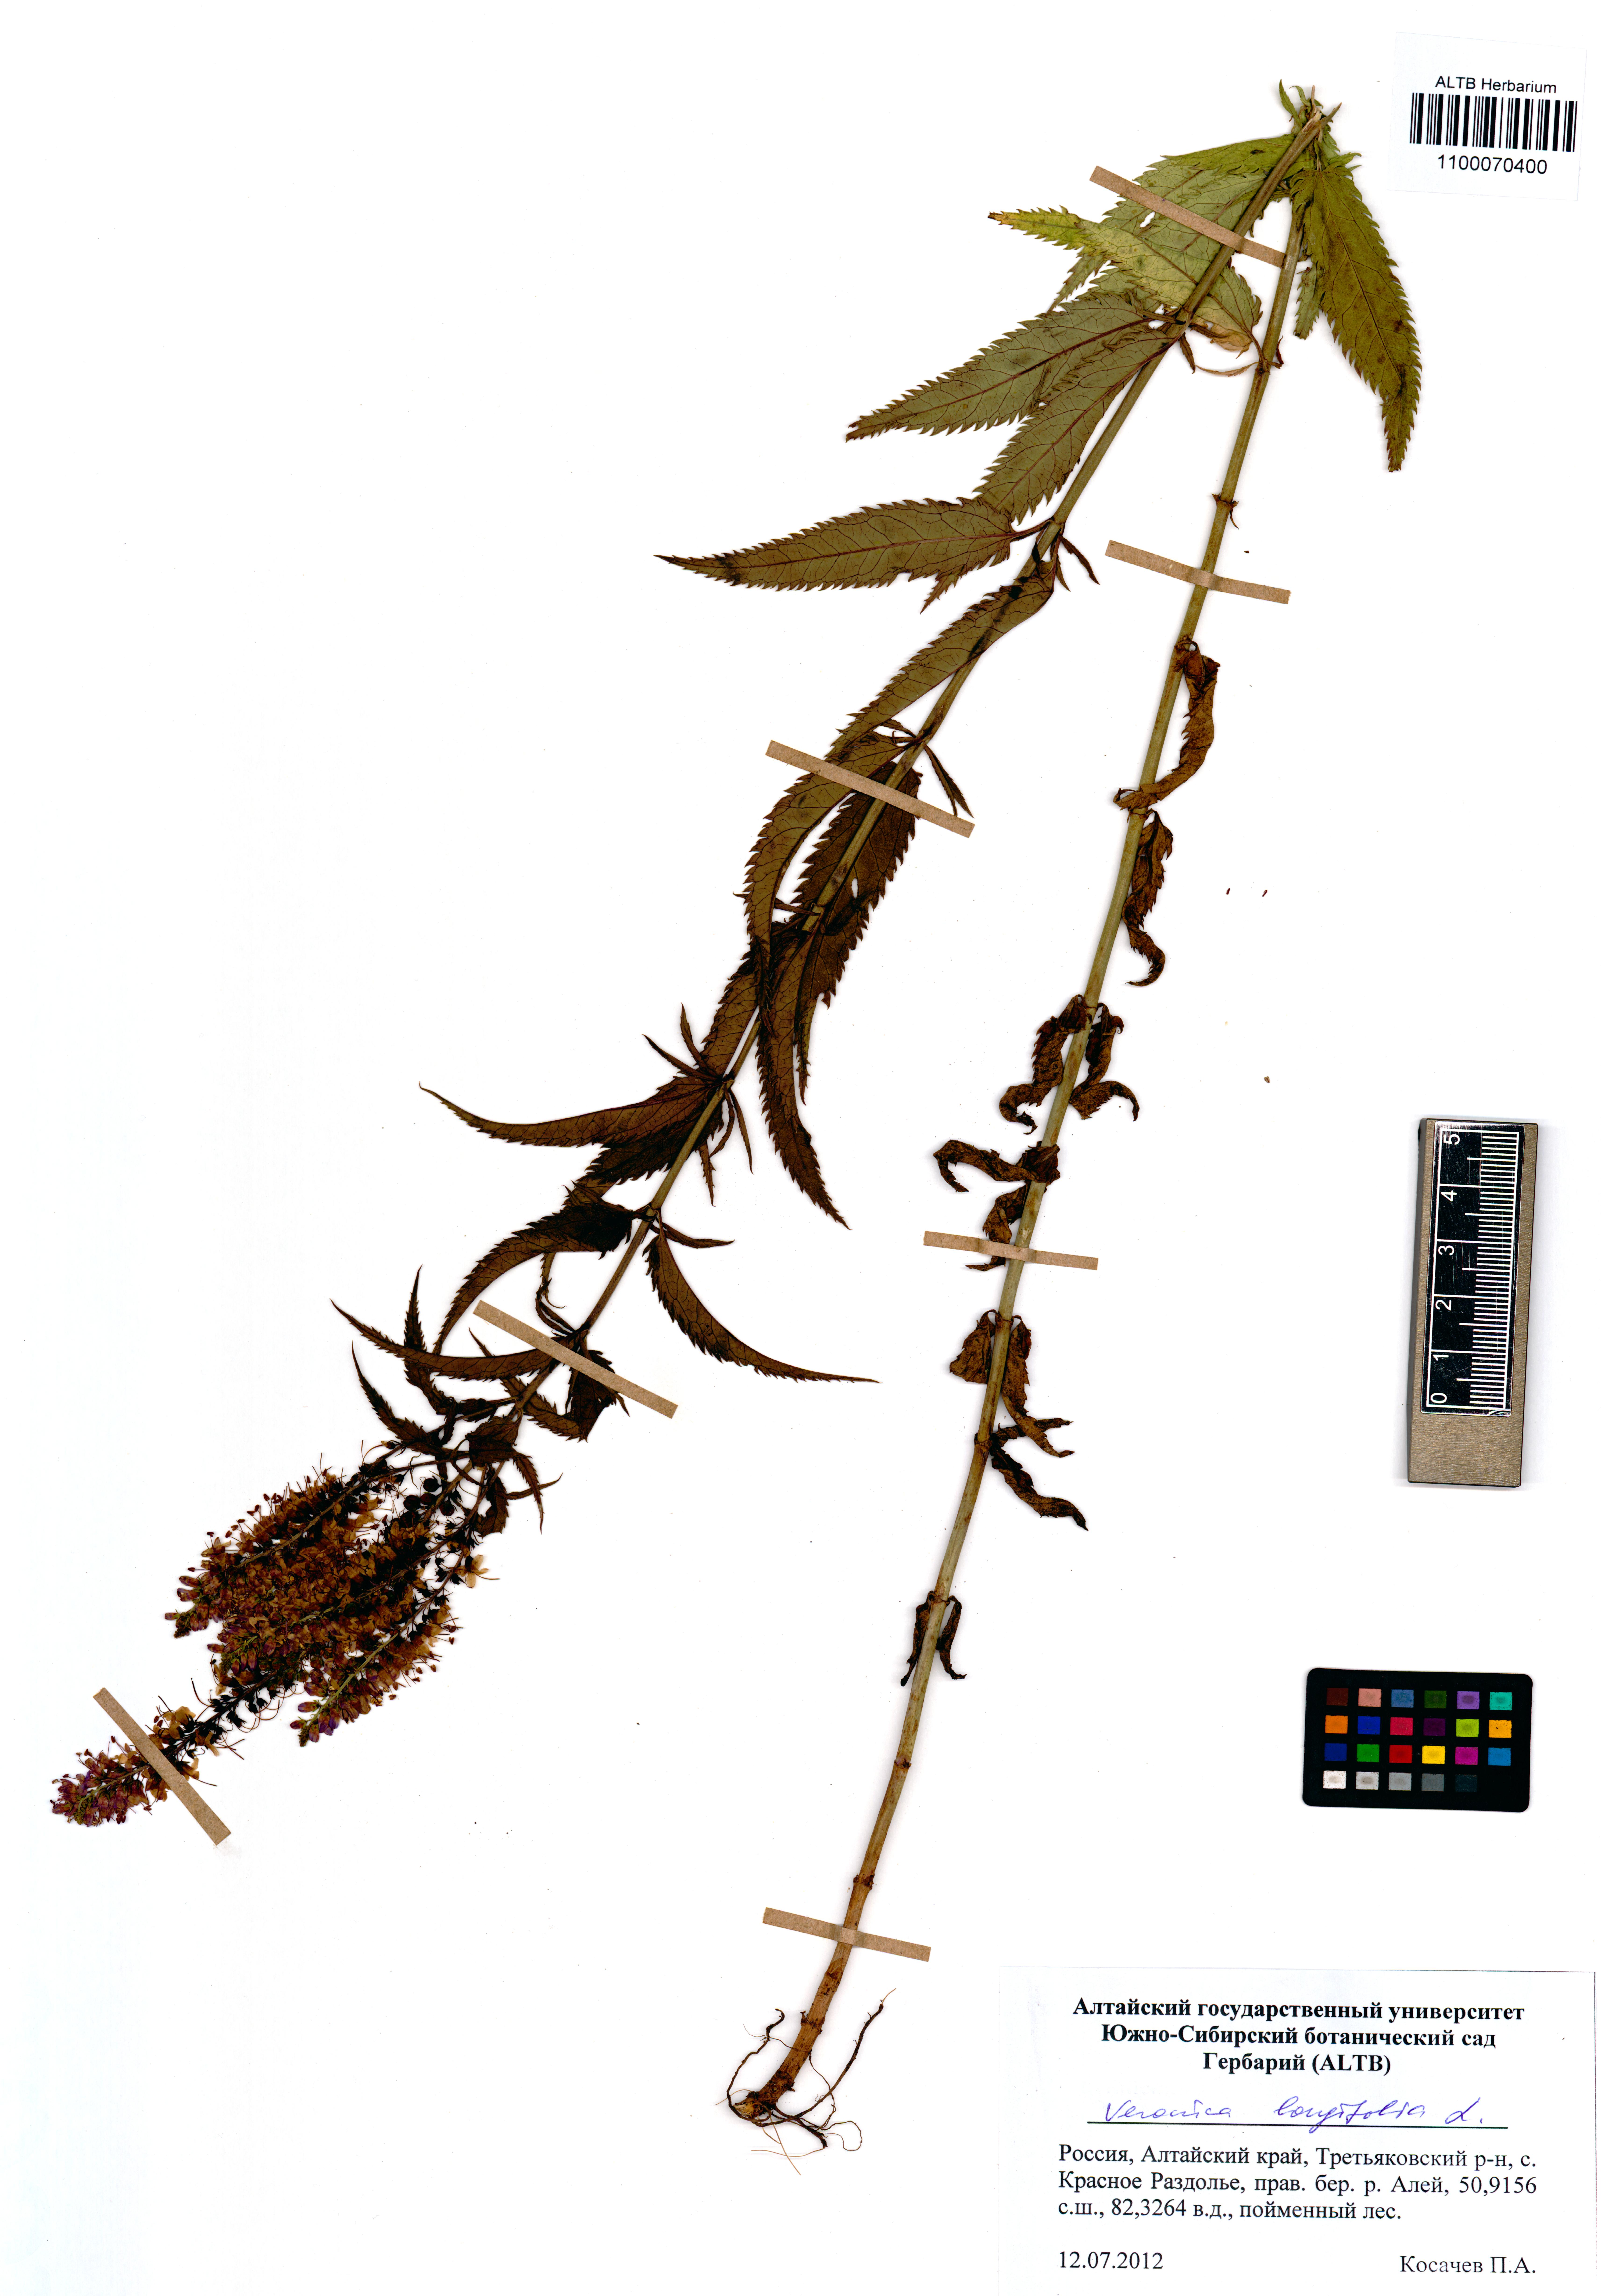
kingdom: Plantae
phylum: Tracheophyta
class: Magnoliopsida
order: Lamiales
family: Plantaginaceae
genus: Veronica
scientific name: Veronica longifolia
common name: Garden speedwell
